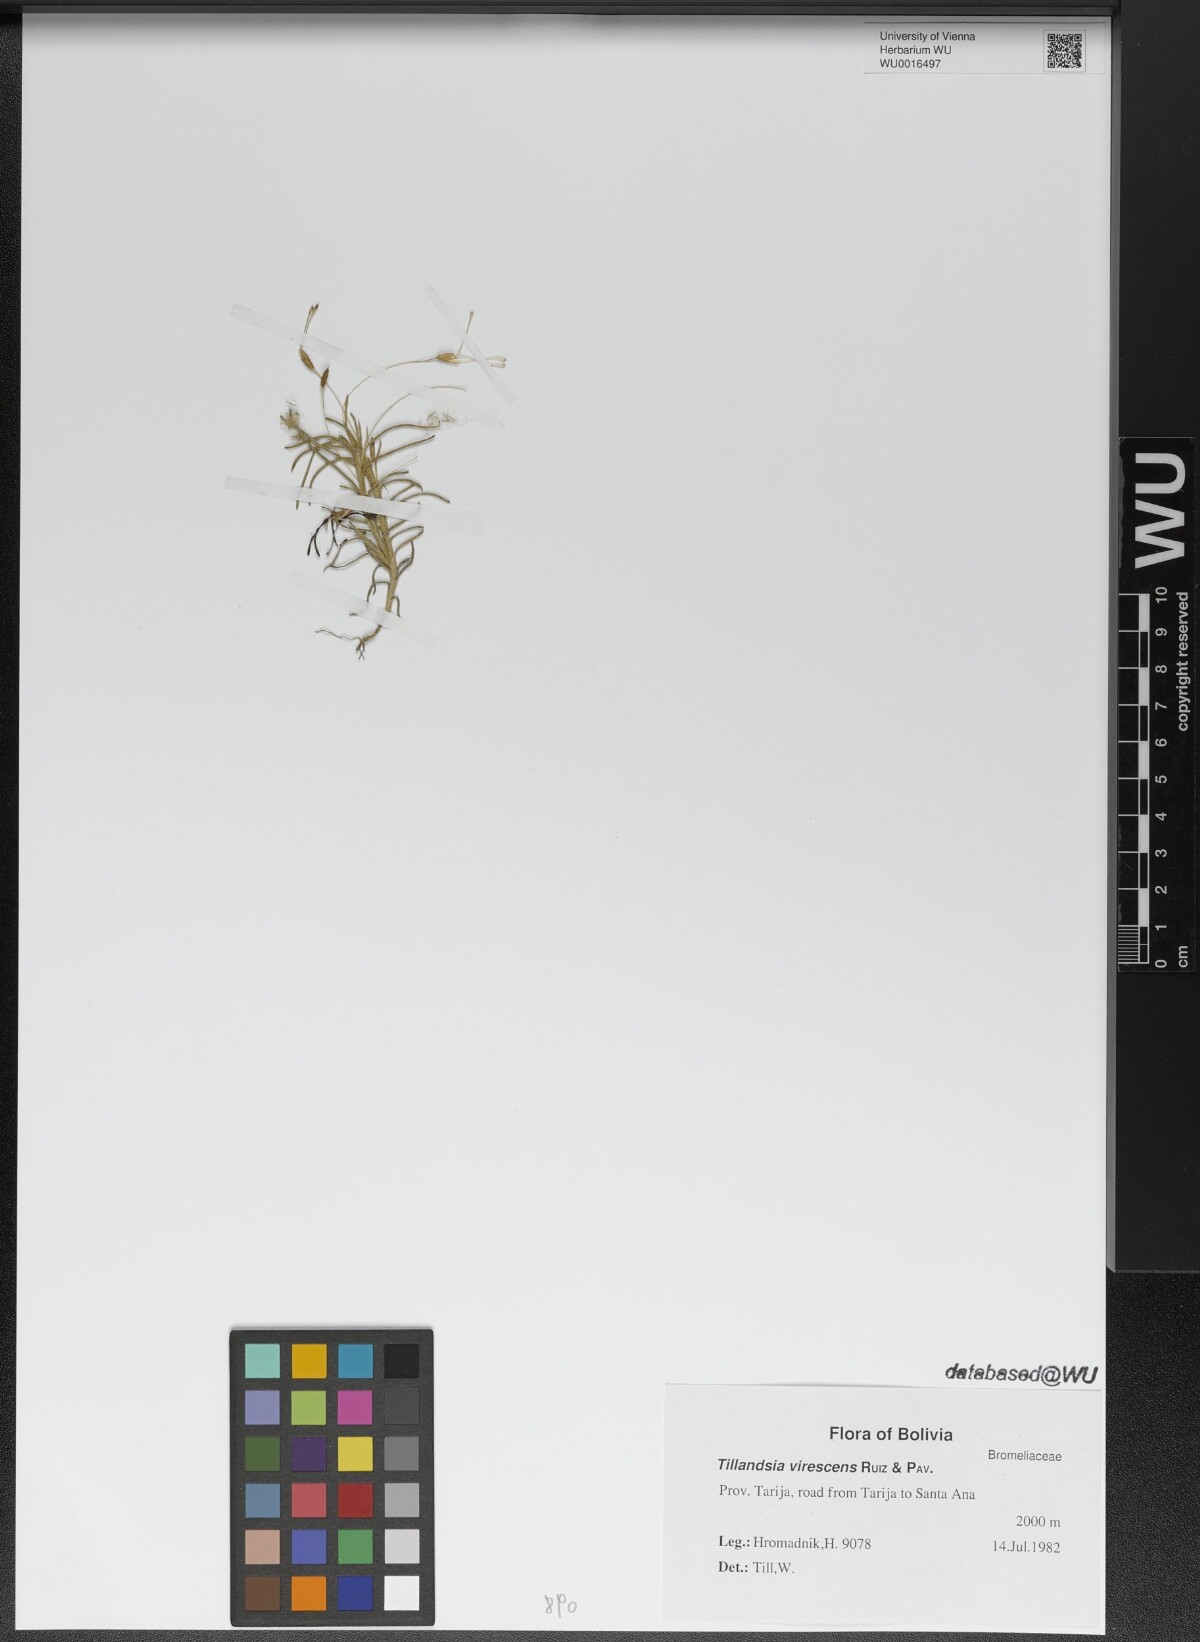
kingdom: Plantae
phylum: Tracheophyta
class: Liliopsida
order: Poales
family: Bromeliaceae
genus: Tillandsia
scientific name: Tillandsia virescens
